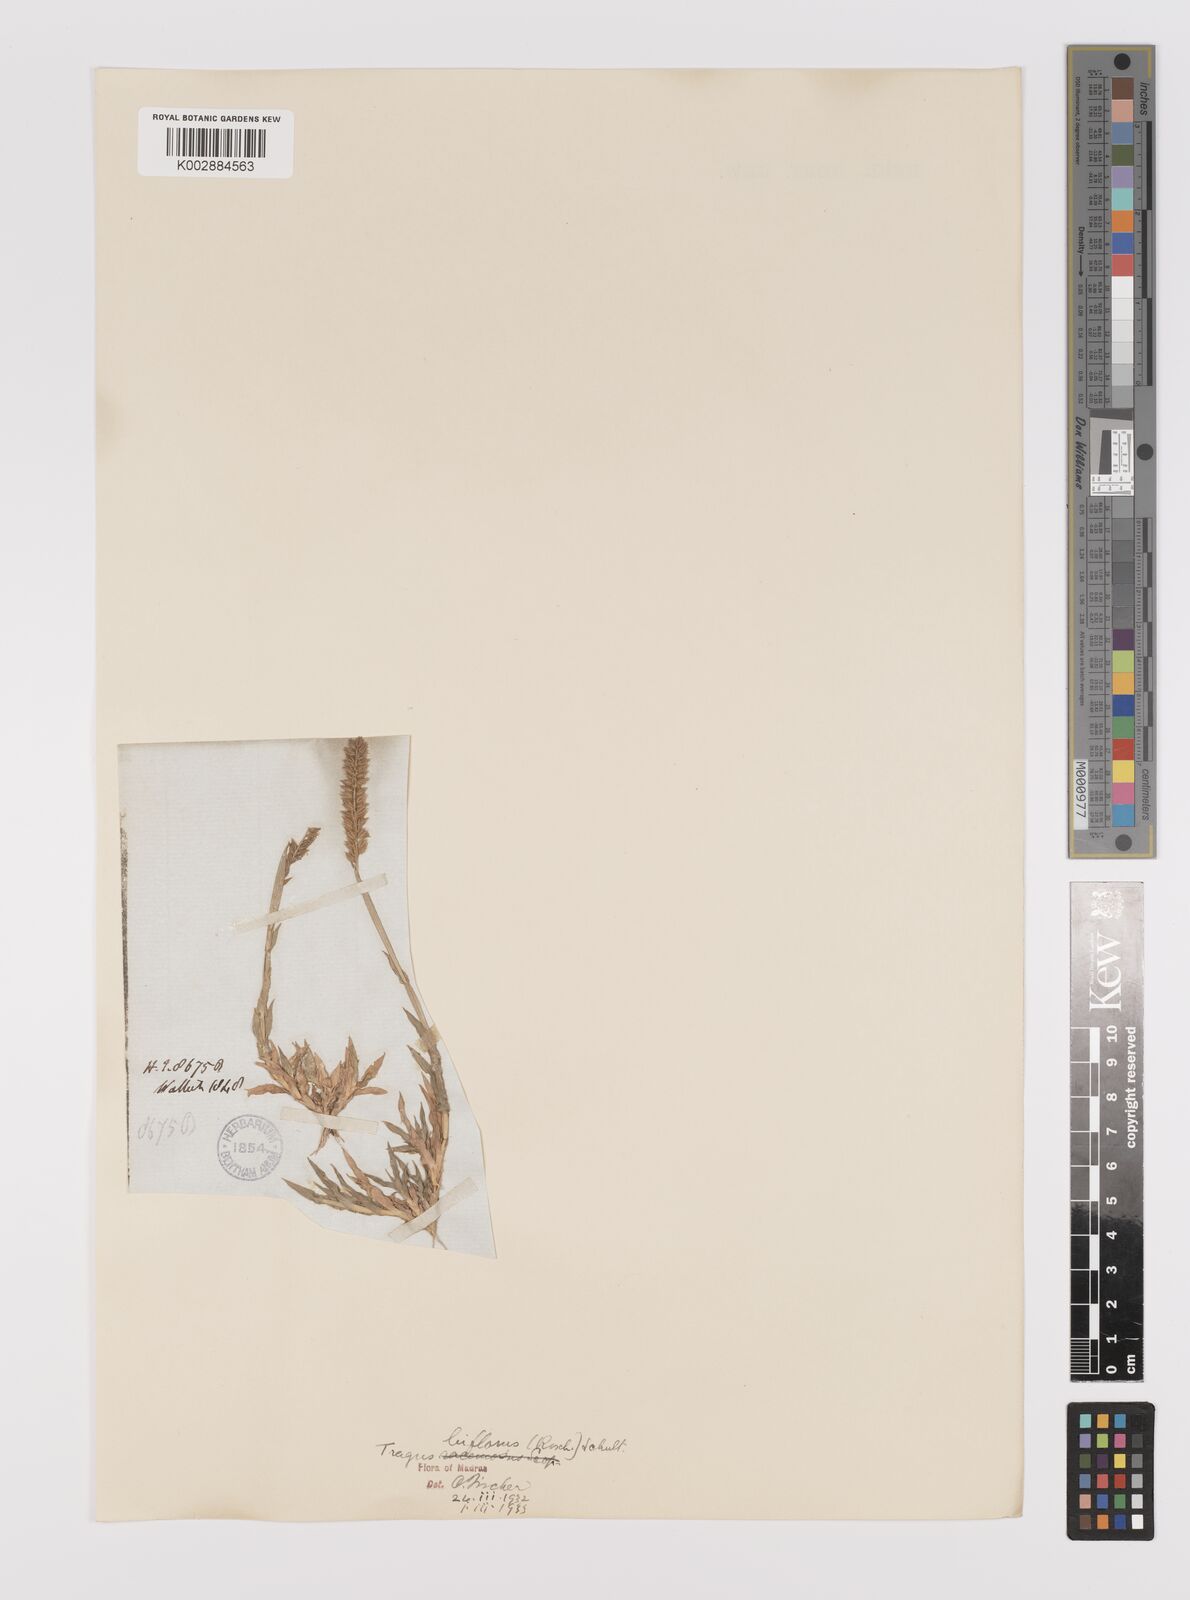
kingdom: Plantae
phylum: Tracheophyta
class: Liliopsida
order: Poales
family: Poaceae
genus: Tragus
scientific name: Tragus mongolorum
